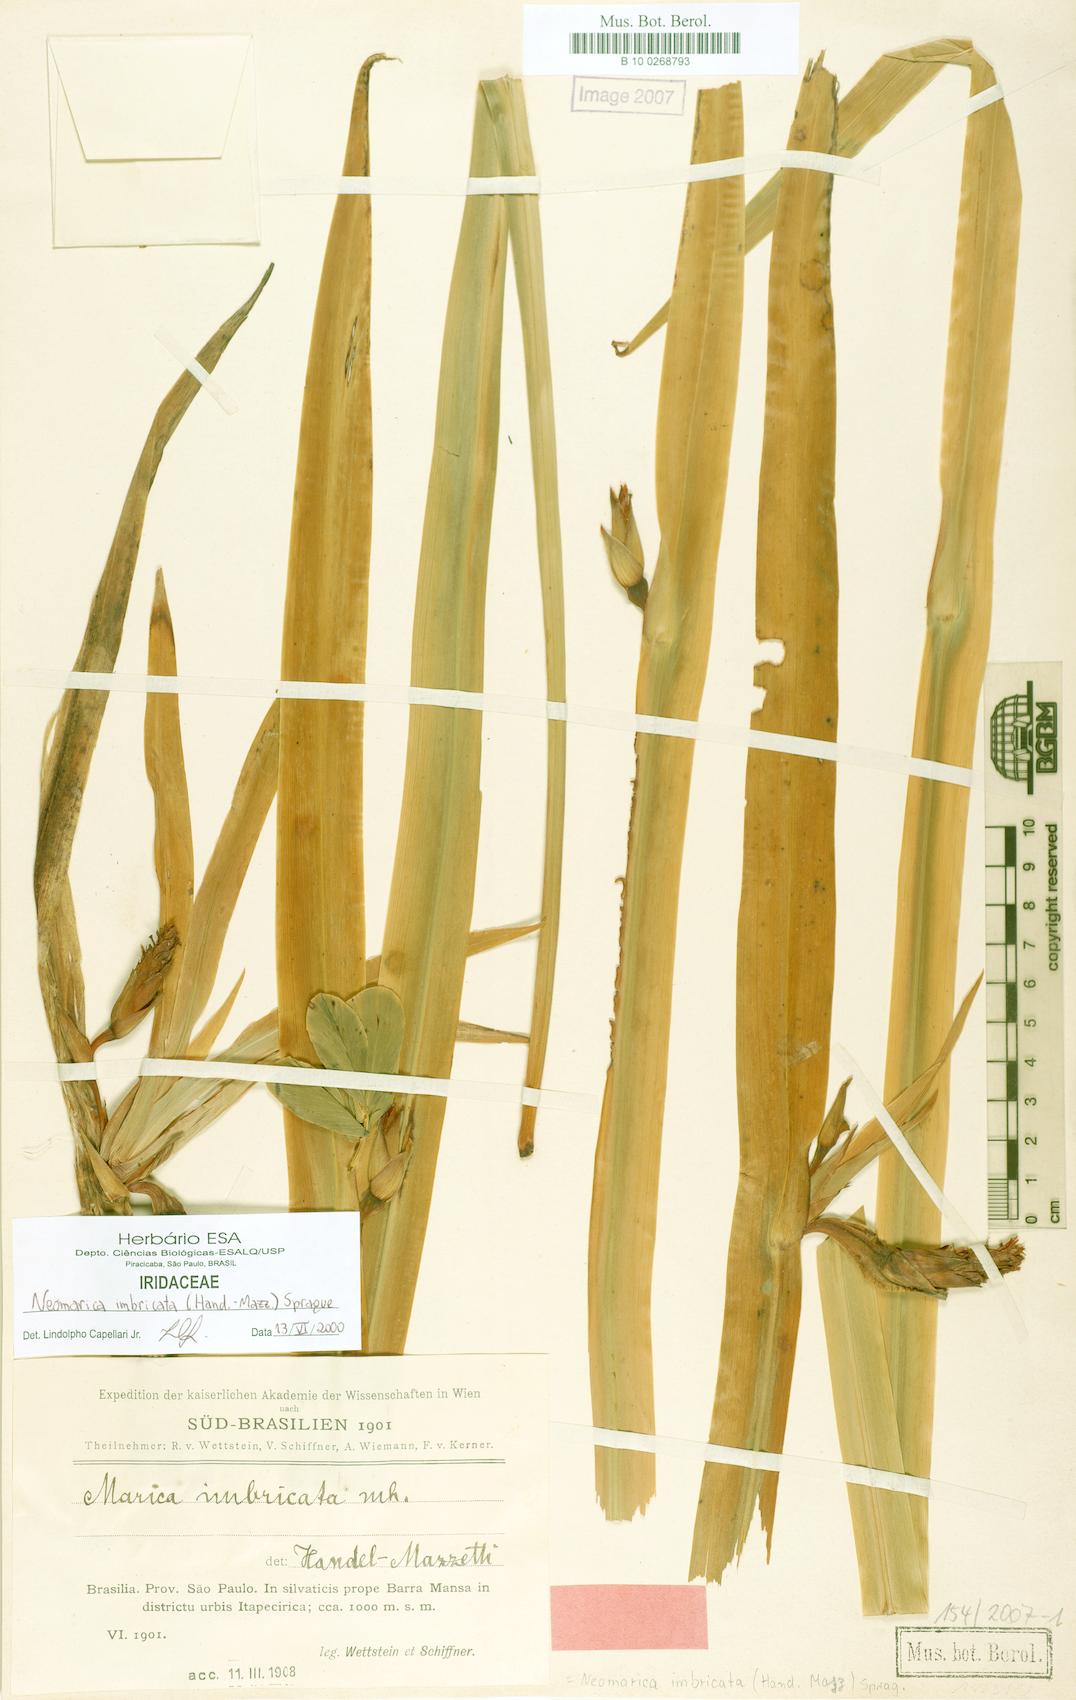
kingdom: Plantae
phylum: Tracheophyta
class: Liliopsida
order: Asparagales
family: Iridaceae
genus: Trimezia
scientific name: Trimezia imbricata
